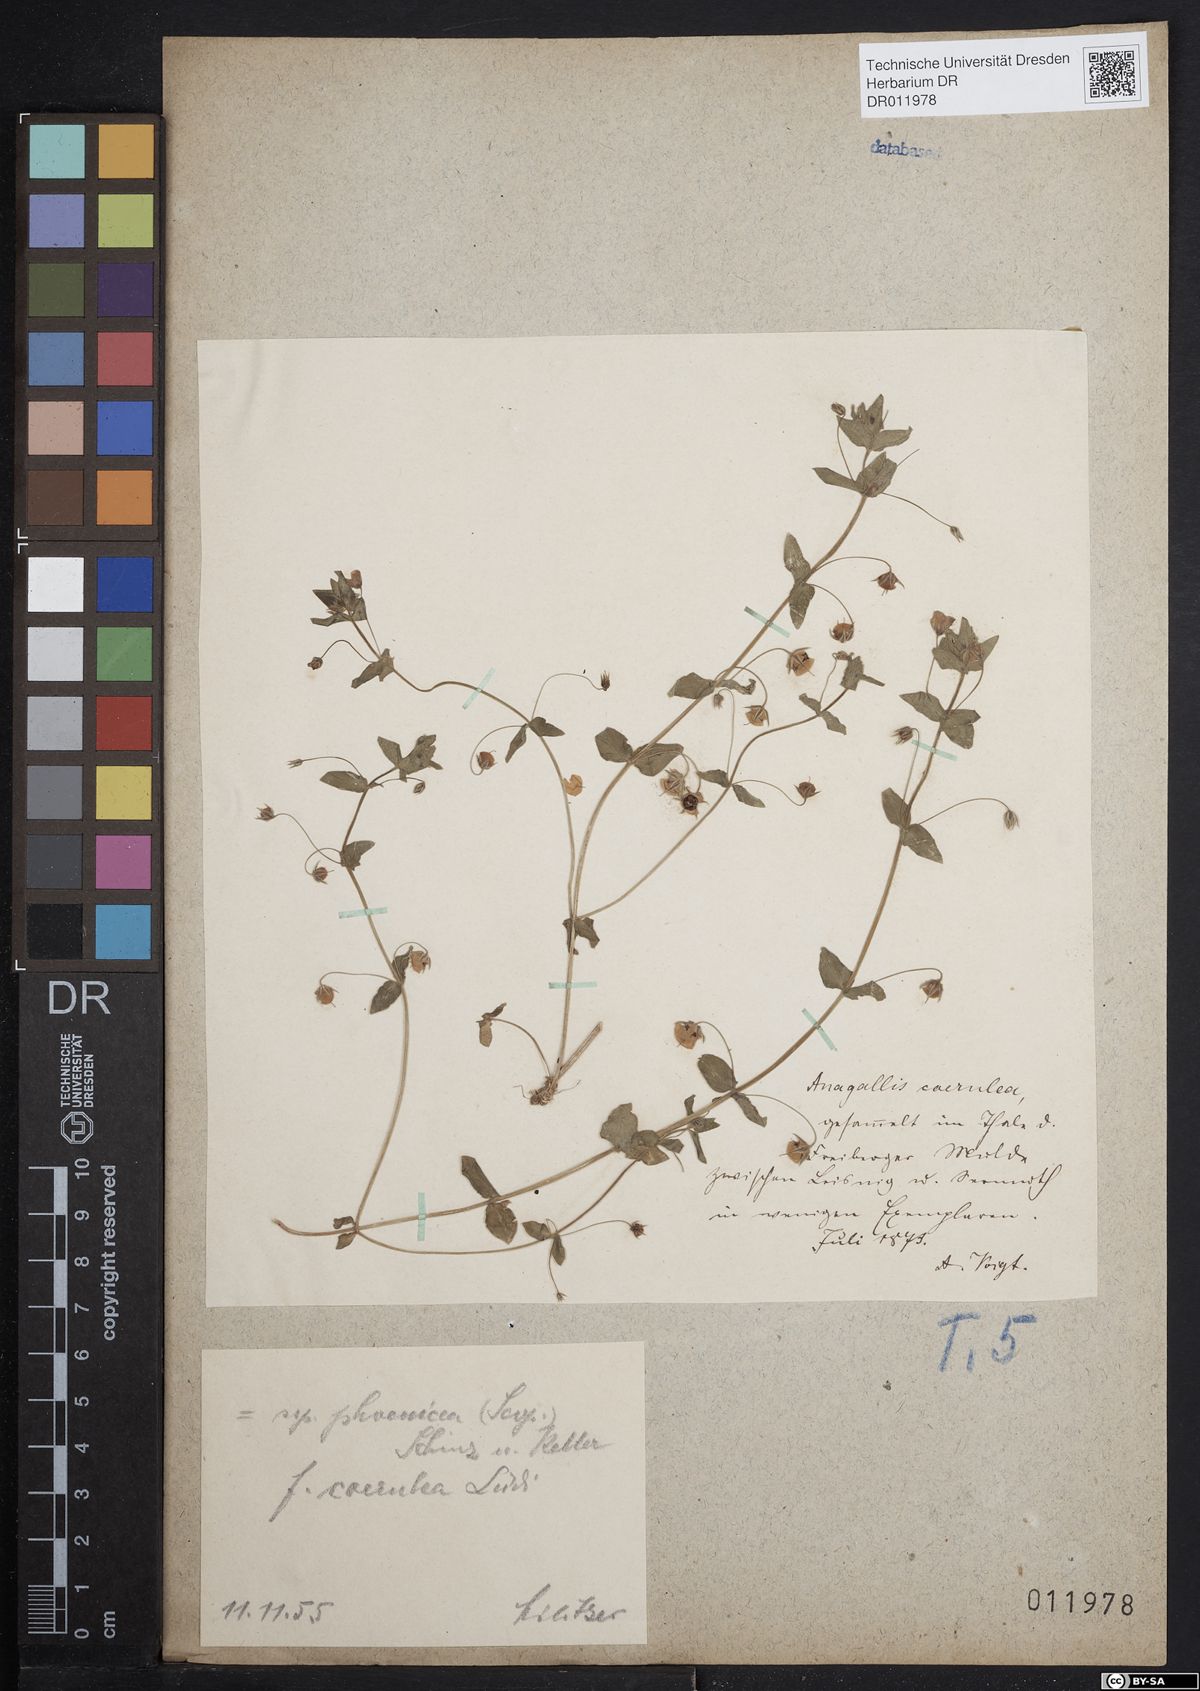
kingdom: Plantae
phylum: Tracheophyta
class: Magnoliopsida
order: Ericales
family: Primulaceae
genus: Lysimachia
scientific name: Lysimachia arvensis
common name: Scarlet pimpernel
